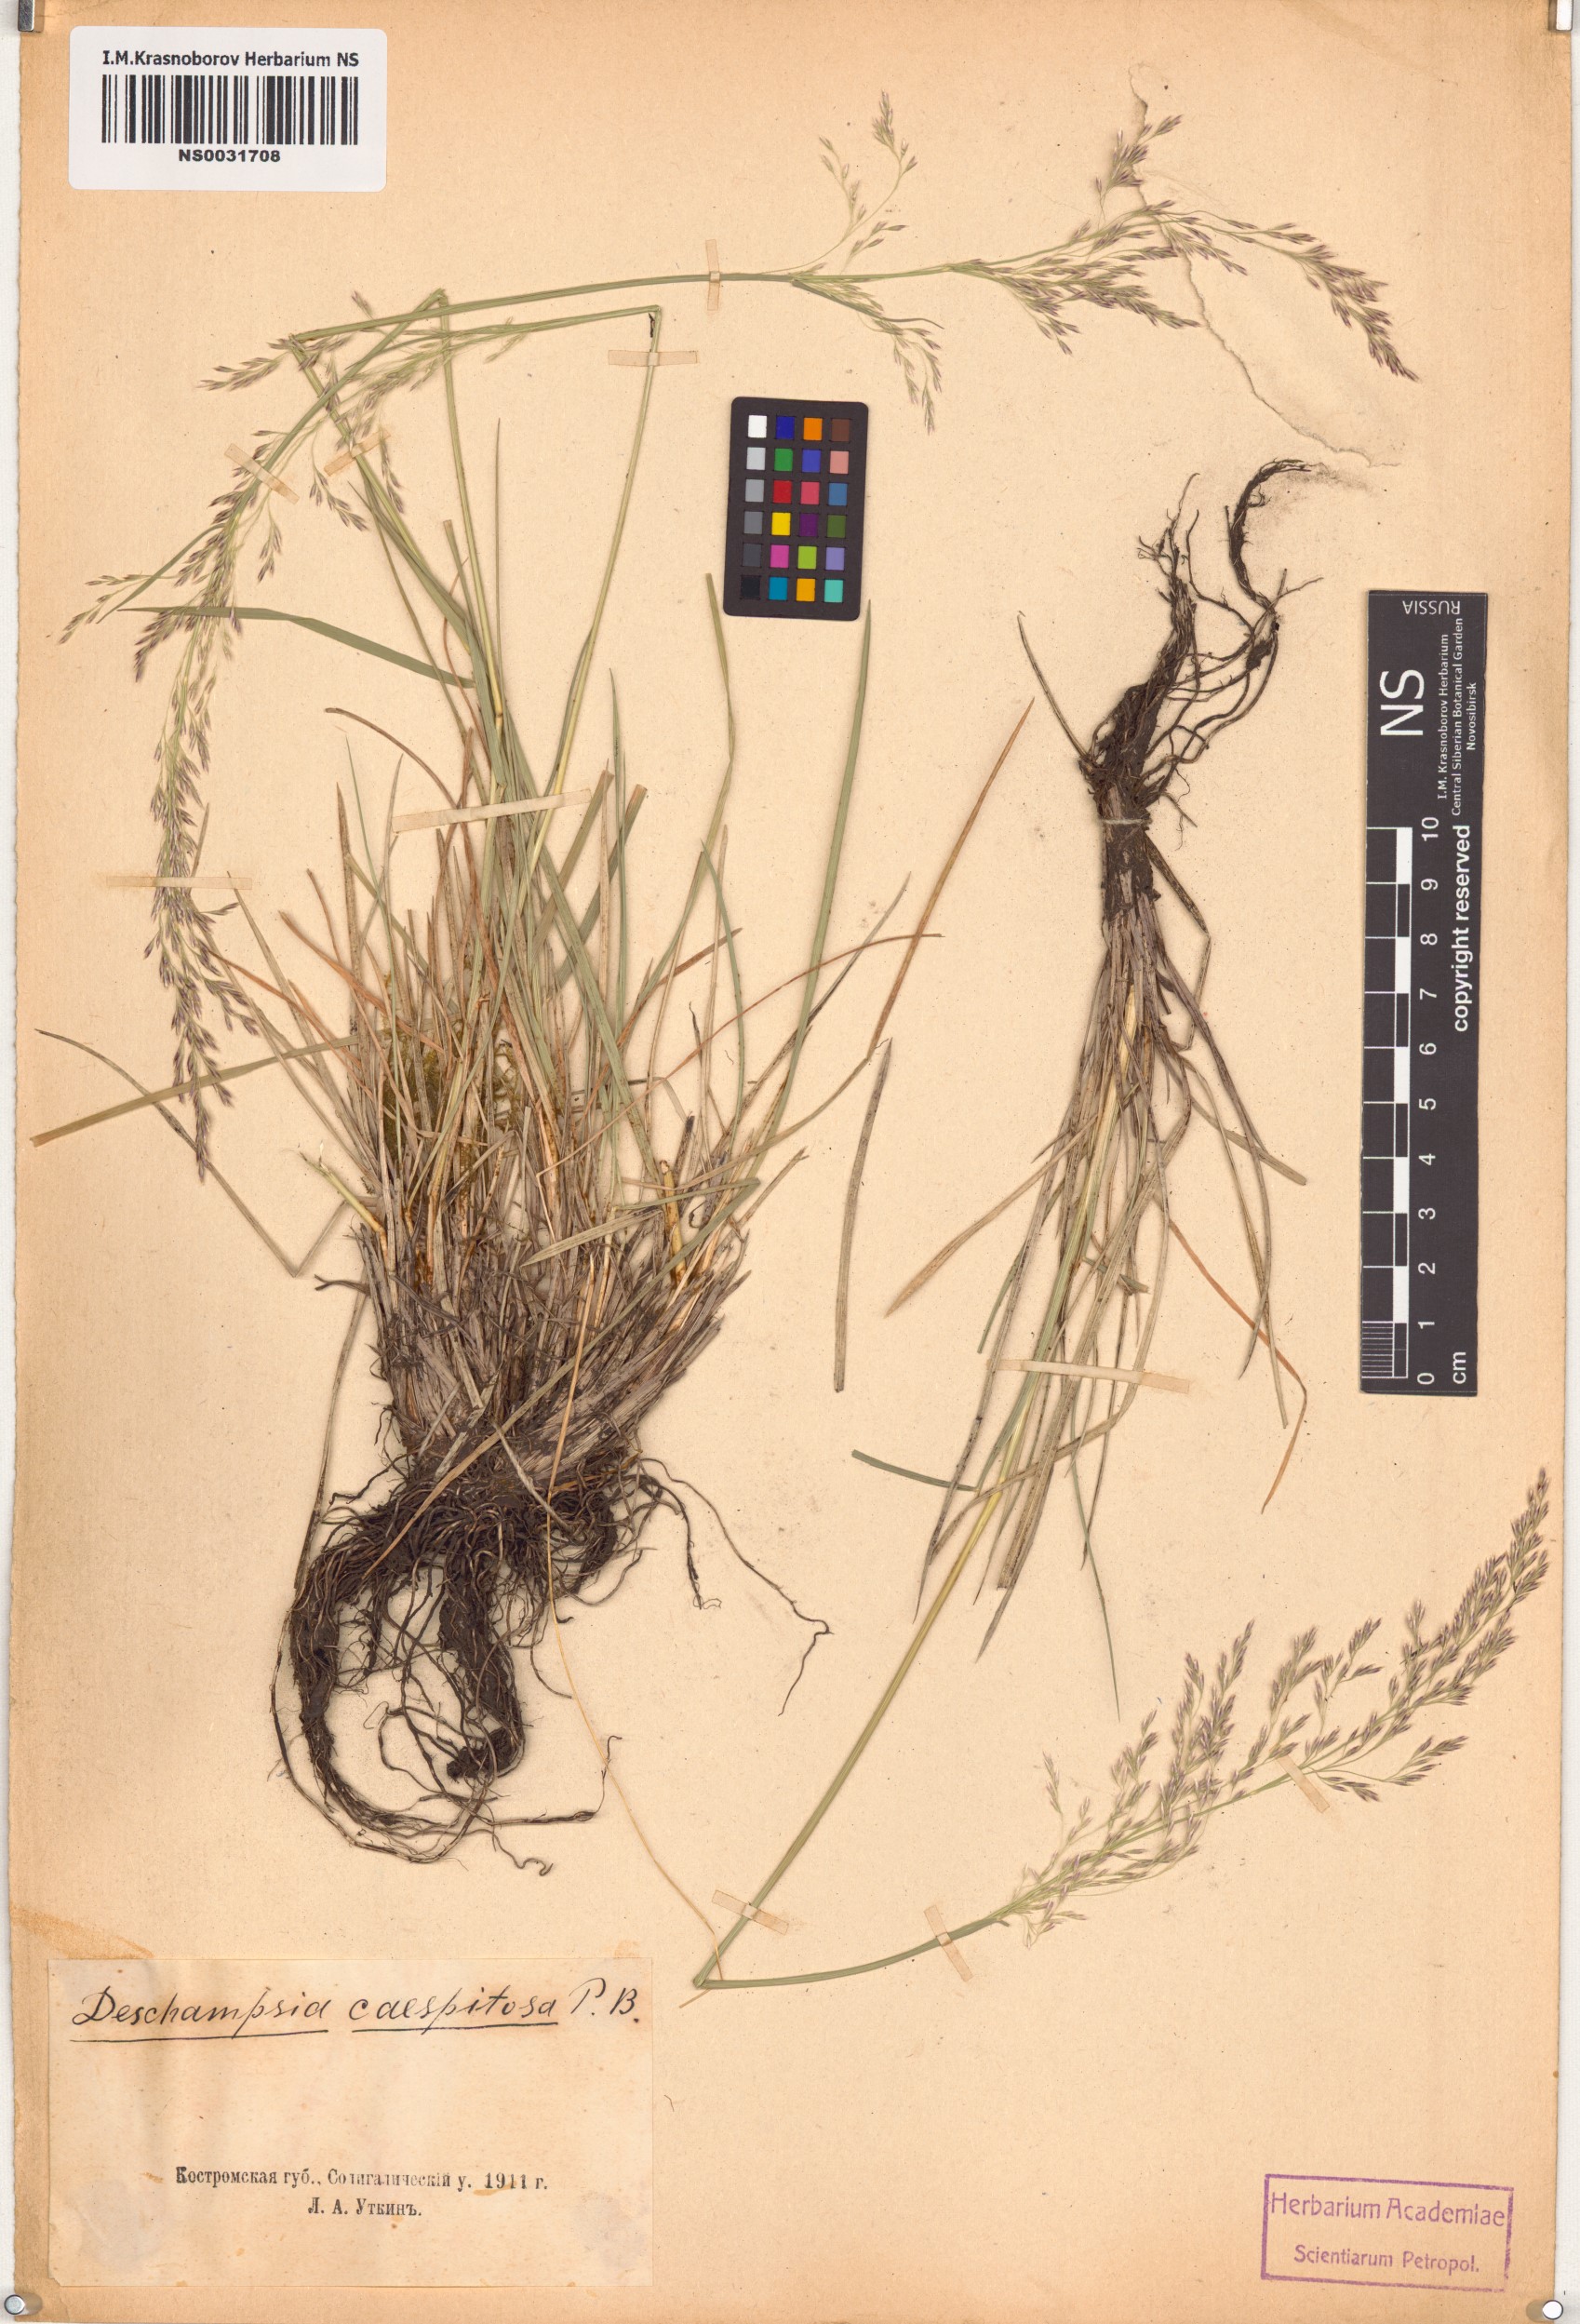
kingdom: Plantae
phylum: Tracheophyta
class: Liliopsida
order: Poales
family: Poaceae
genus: Deschampsia
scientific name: Deschampsia cespitosa
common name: Tufted hair-grass
